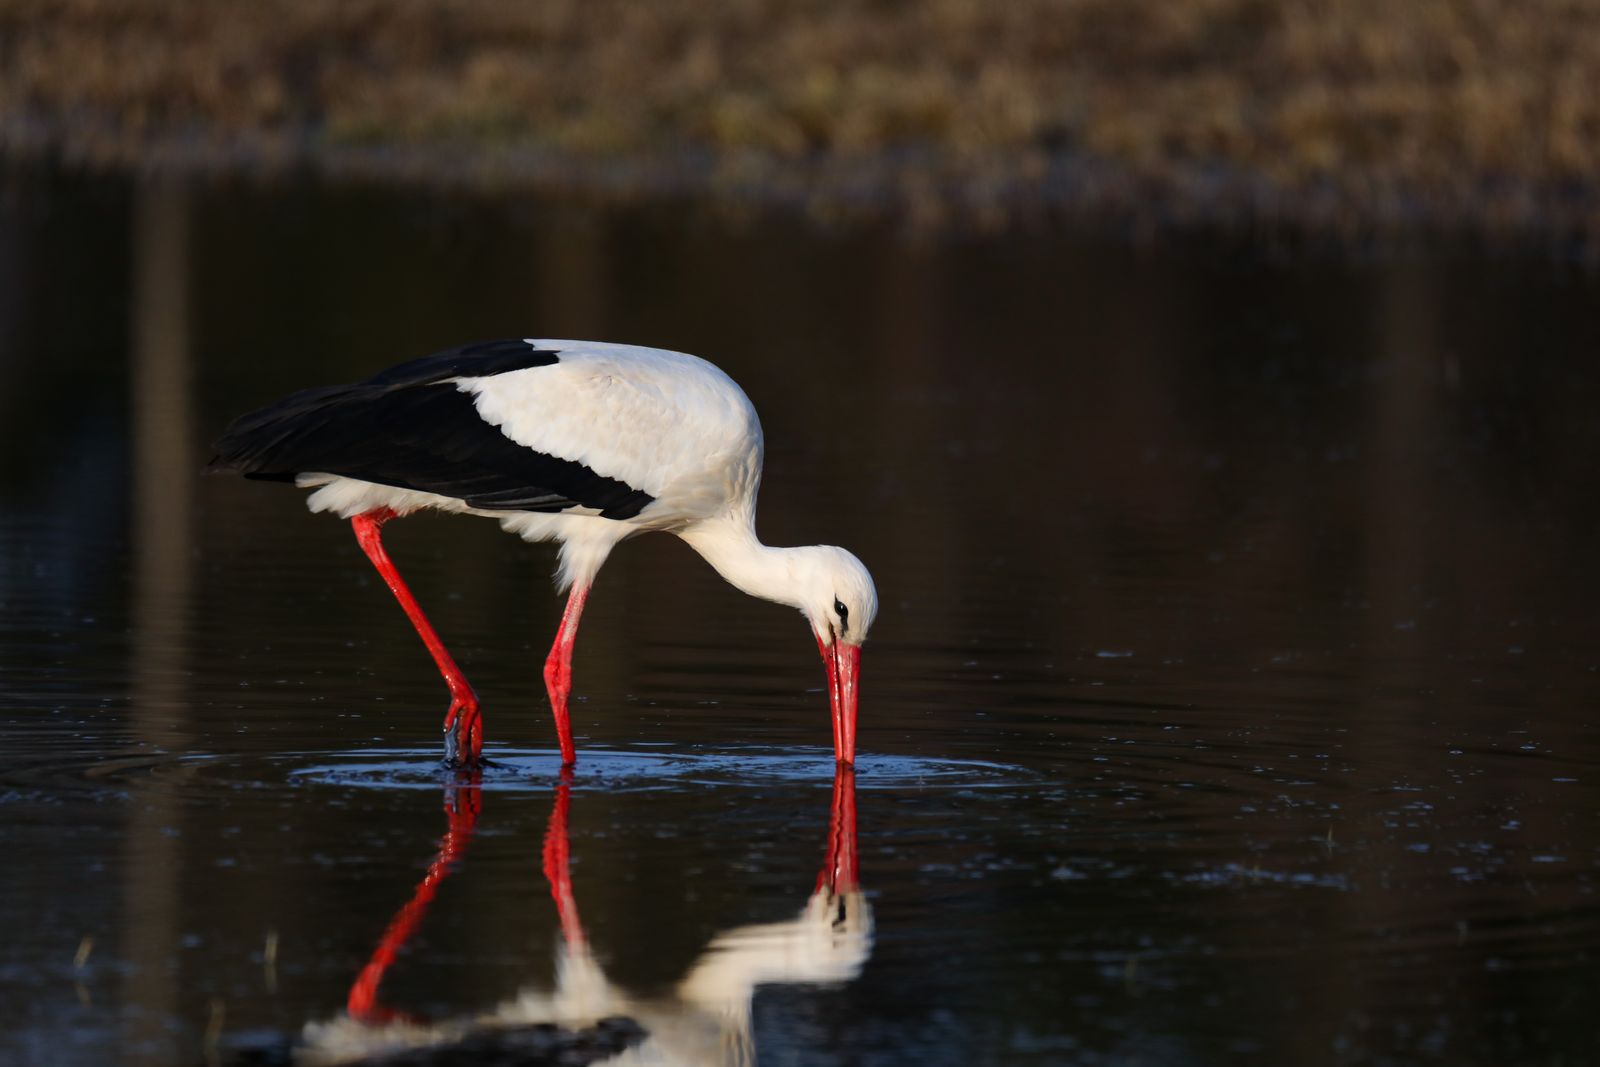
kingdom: Animalia
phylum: Chordata
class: Aves
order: Ciconiiformes
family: Ciconiidae
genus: Ciconia
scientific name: Ciconia ciconia
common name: White stork
